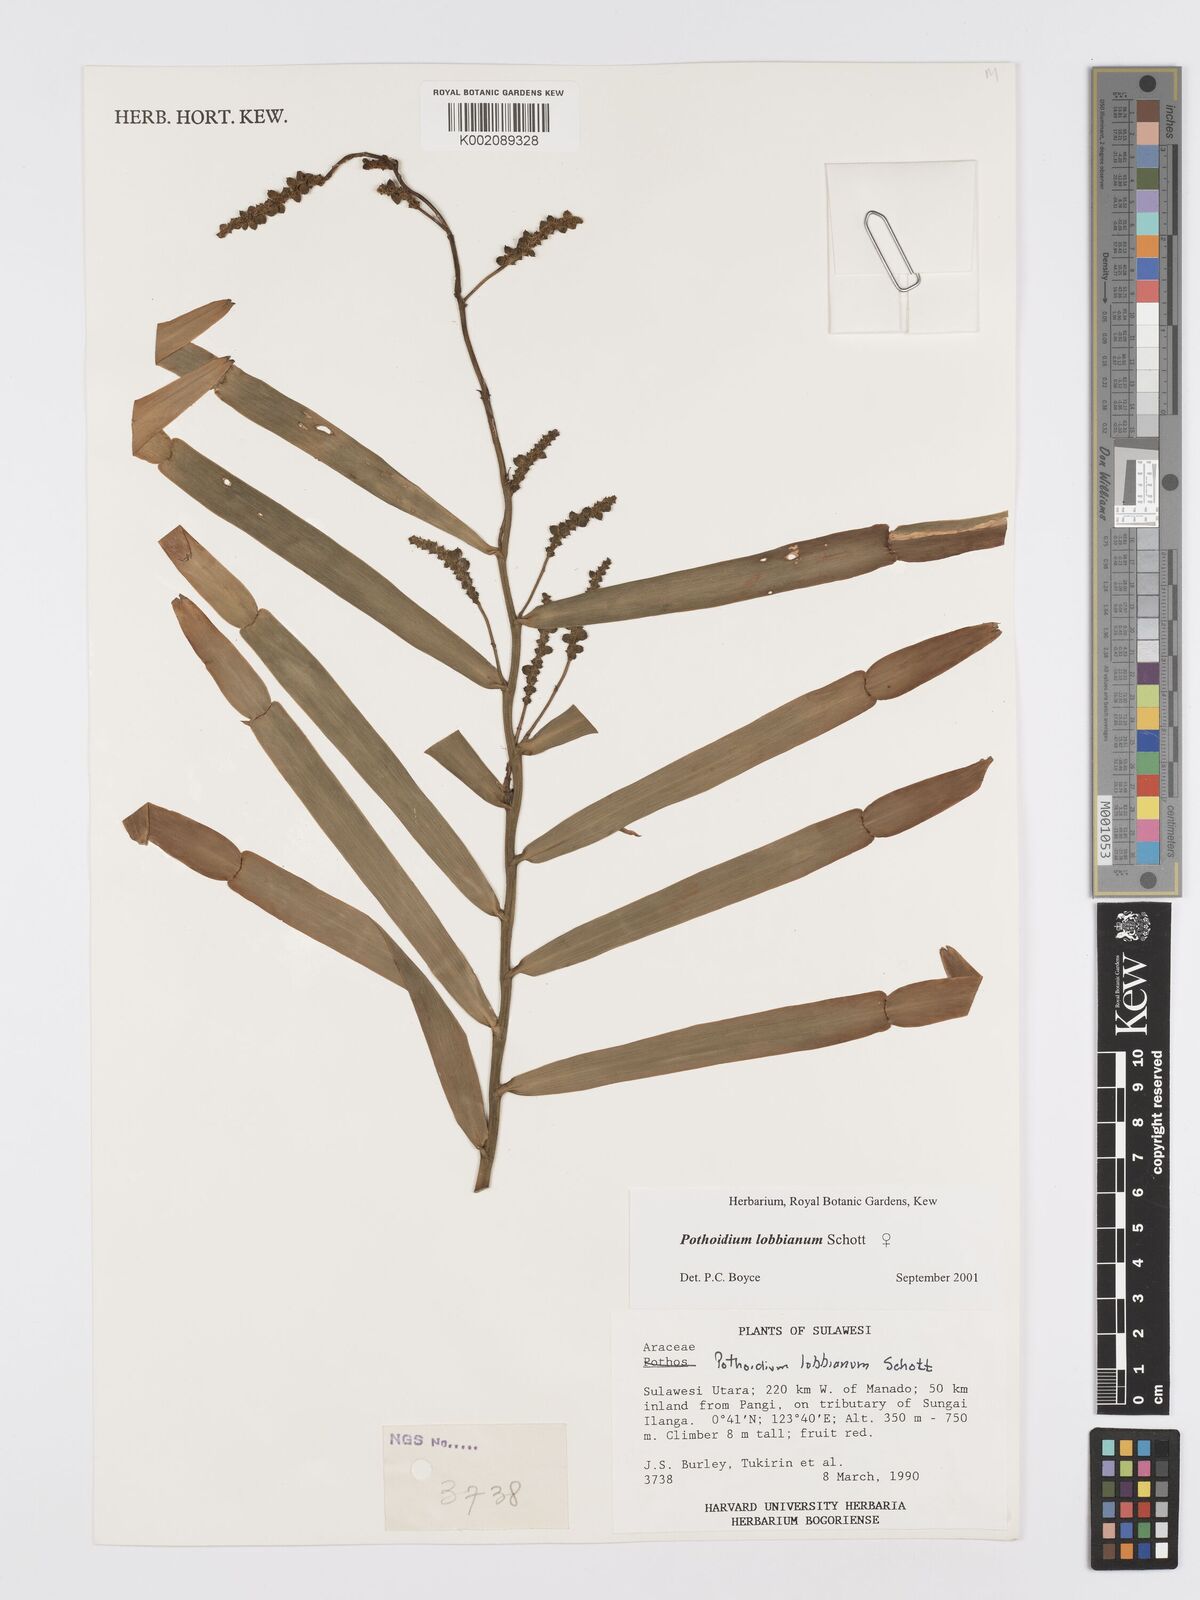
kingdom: Plantae
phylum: Tracheophyta
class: Liliopsida
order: Alismatales
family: Araceae
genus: Pothoidium
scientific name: Pothoidium lobbianum
